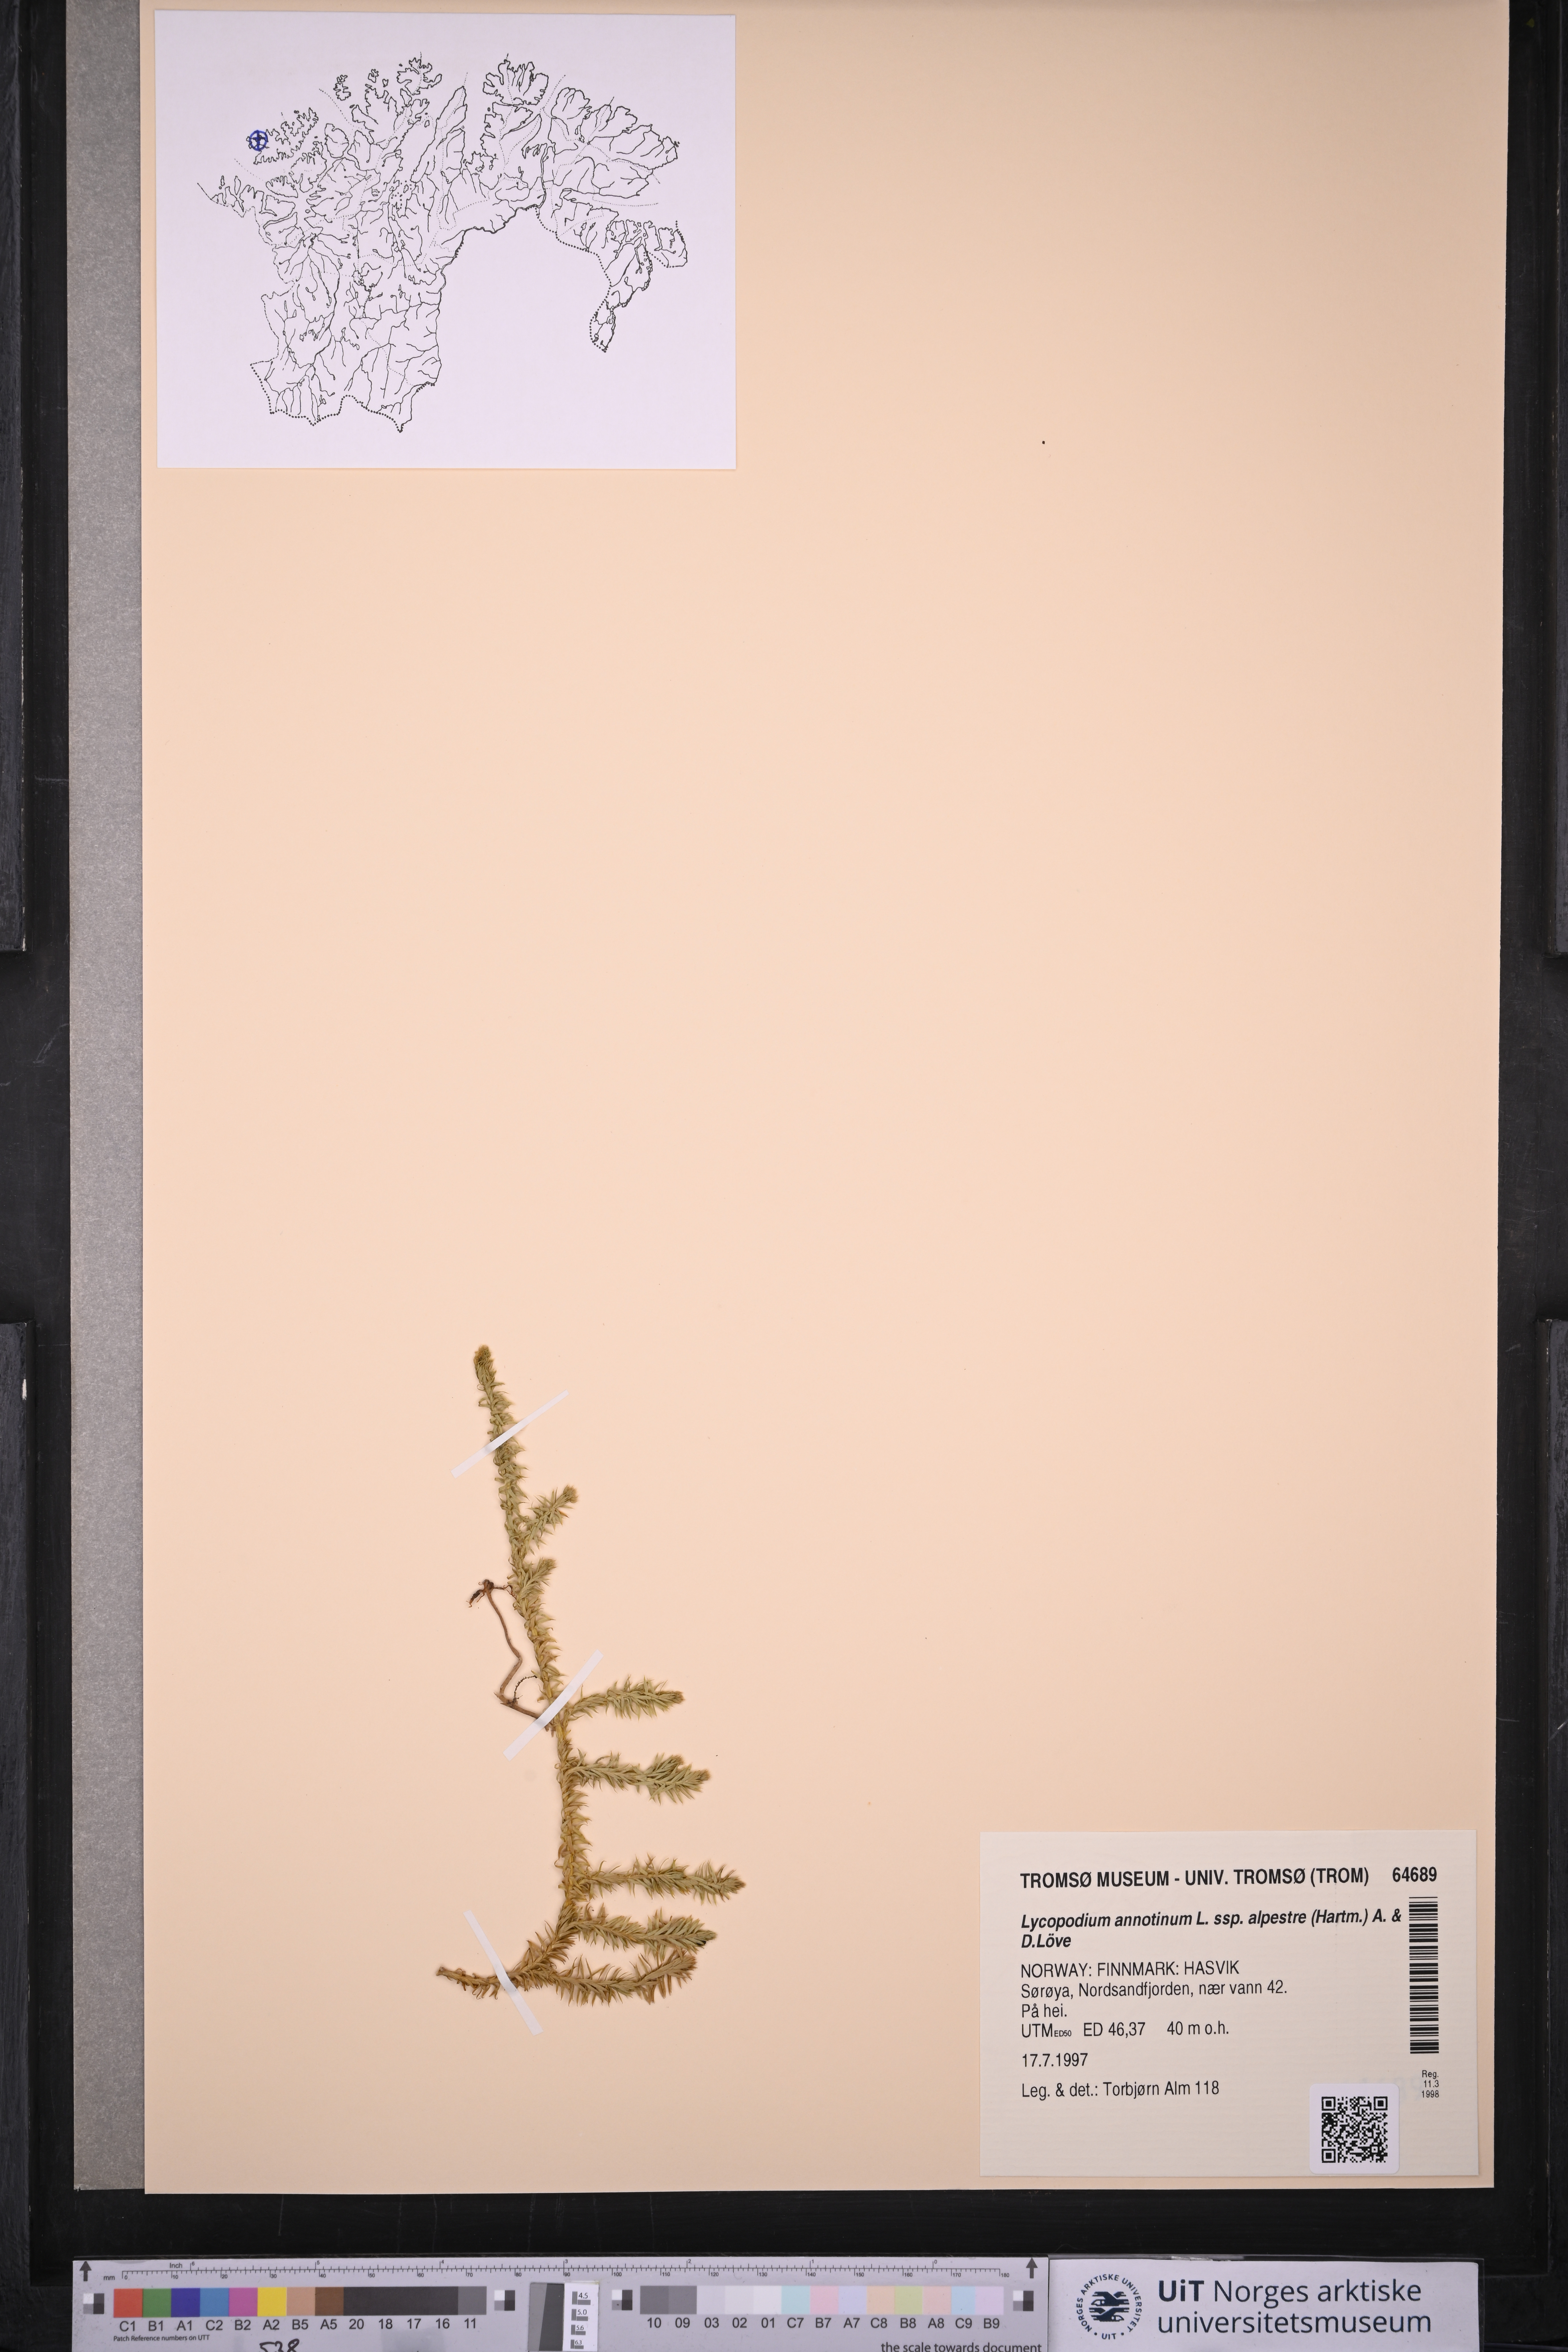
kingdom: Plantae
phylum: Tracheophyta
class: Lycopodiopsida
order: Lycopodiales
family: Lycopodiaceae
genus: Spinulum
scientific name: Spinulum annotinum
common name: Interrupted club-moss
